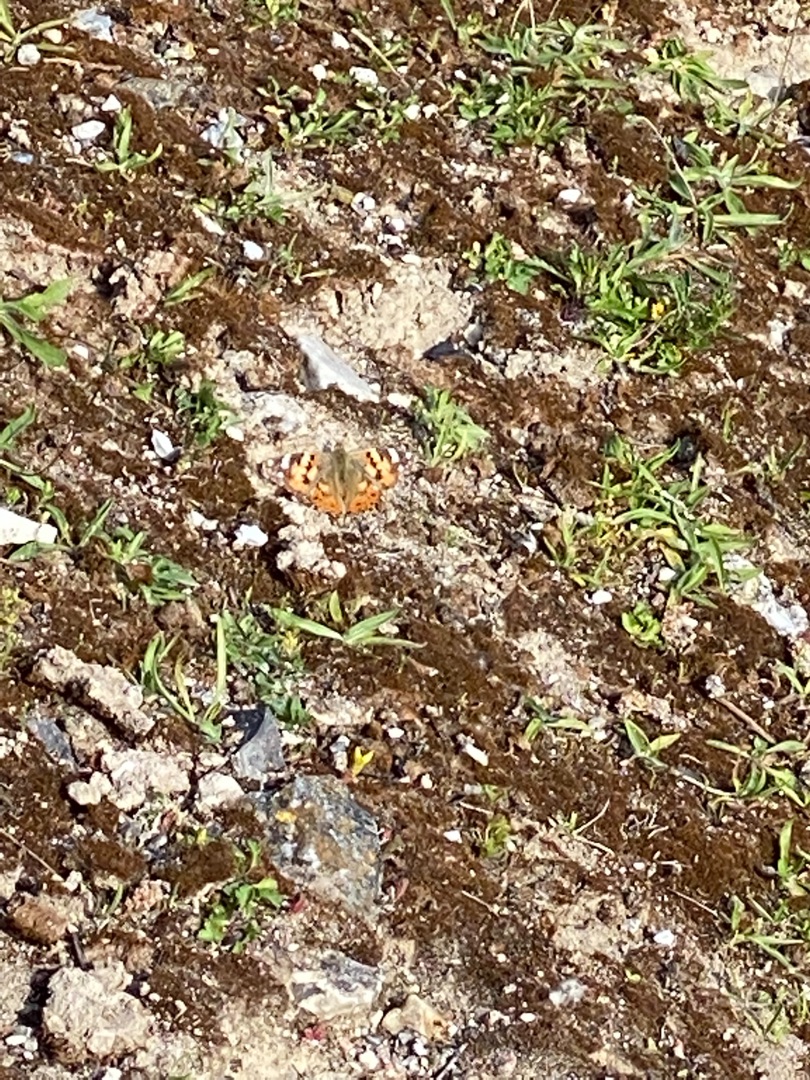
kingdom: Animalia
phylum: Arthropoda
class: Insecta
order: Lepidoptera
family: Nymphalidae
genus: Vanessa
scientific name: Vanessa cardui
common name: Tidselsommerfugl
